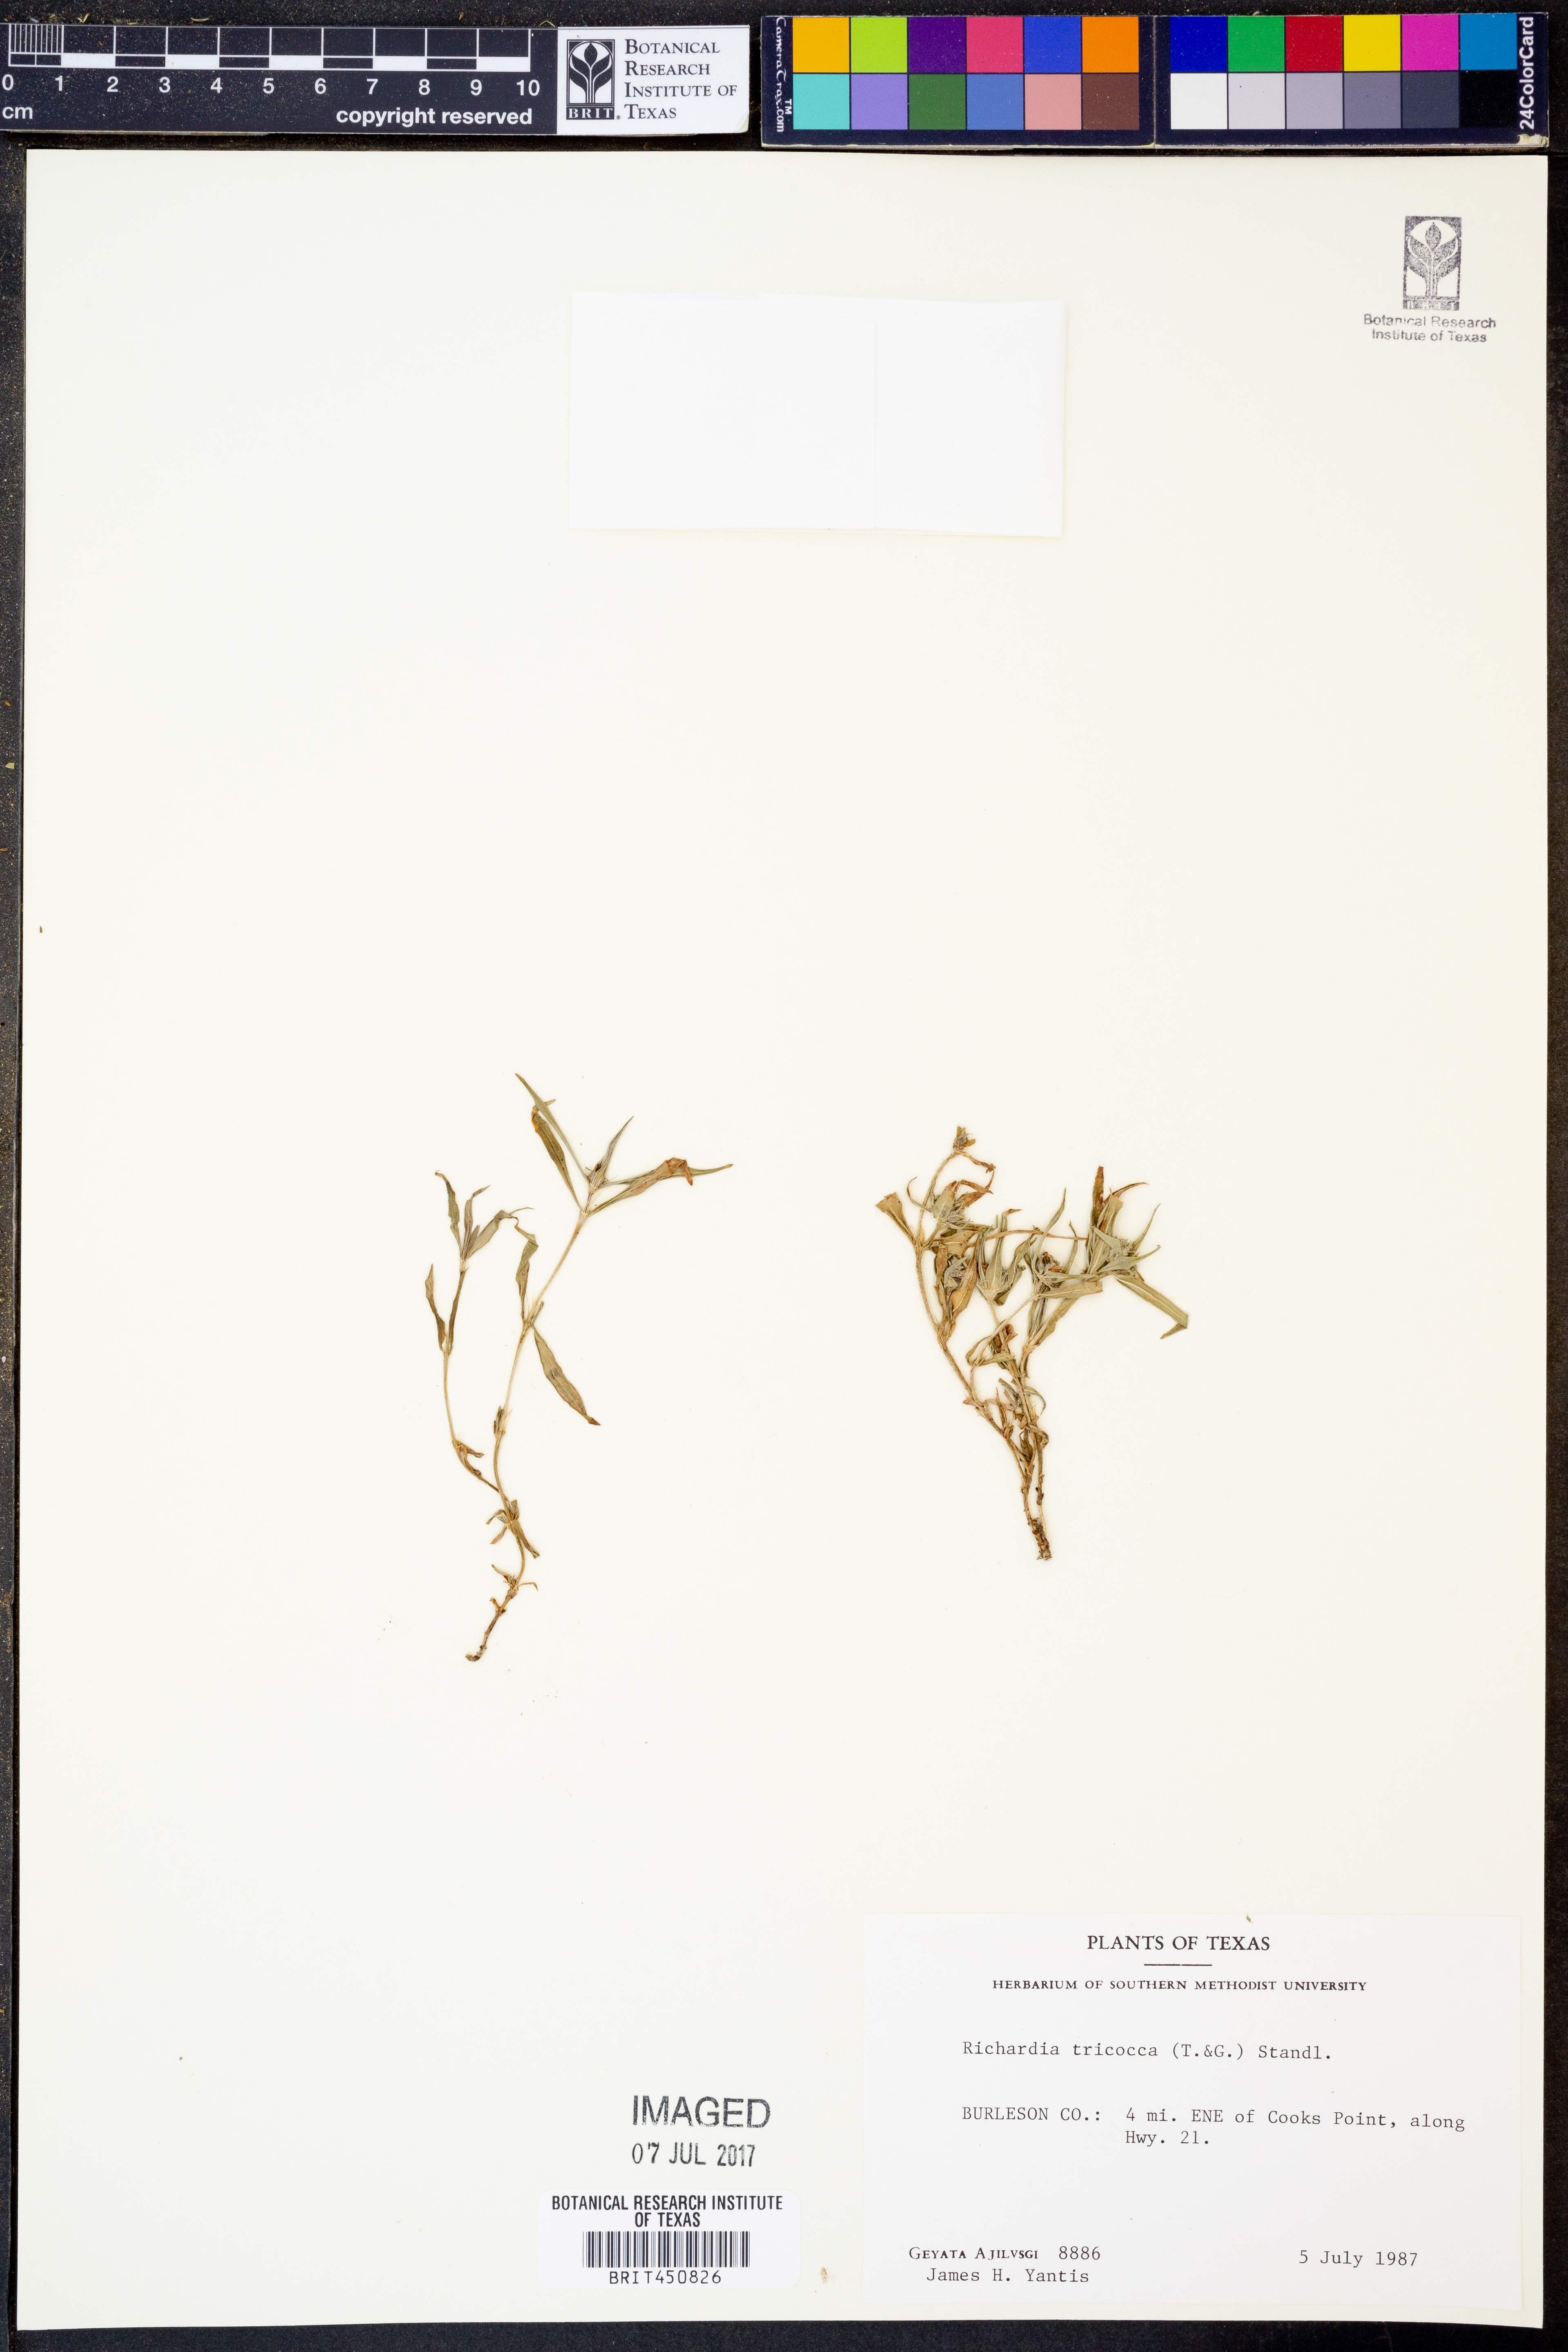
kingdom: Plantae
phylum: Tracheophyta
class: Magnoliopsida
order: Gentianales
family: Rubiaceae
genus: Richardia
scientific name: Richardia tricocca
